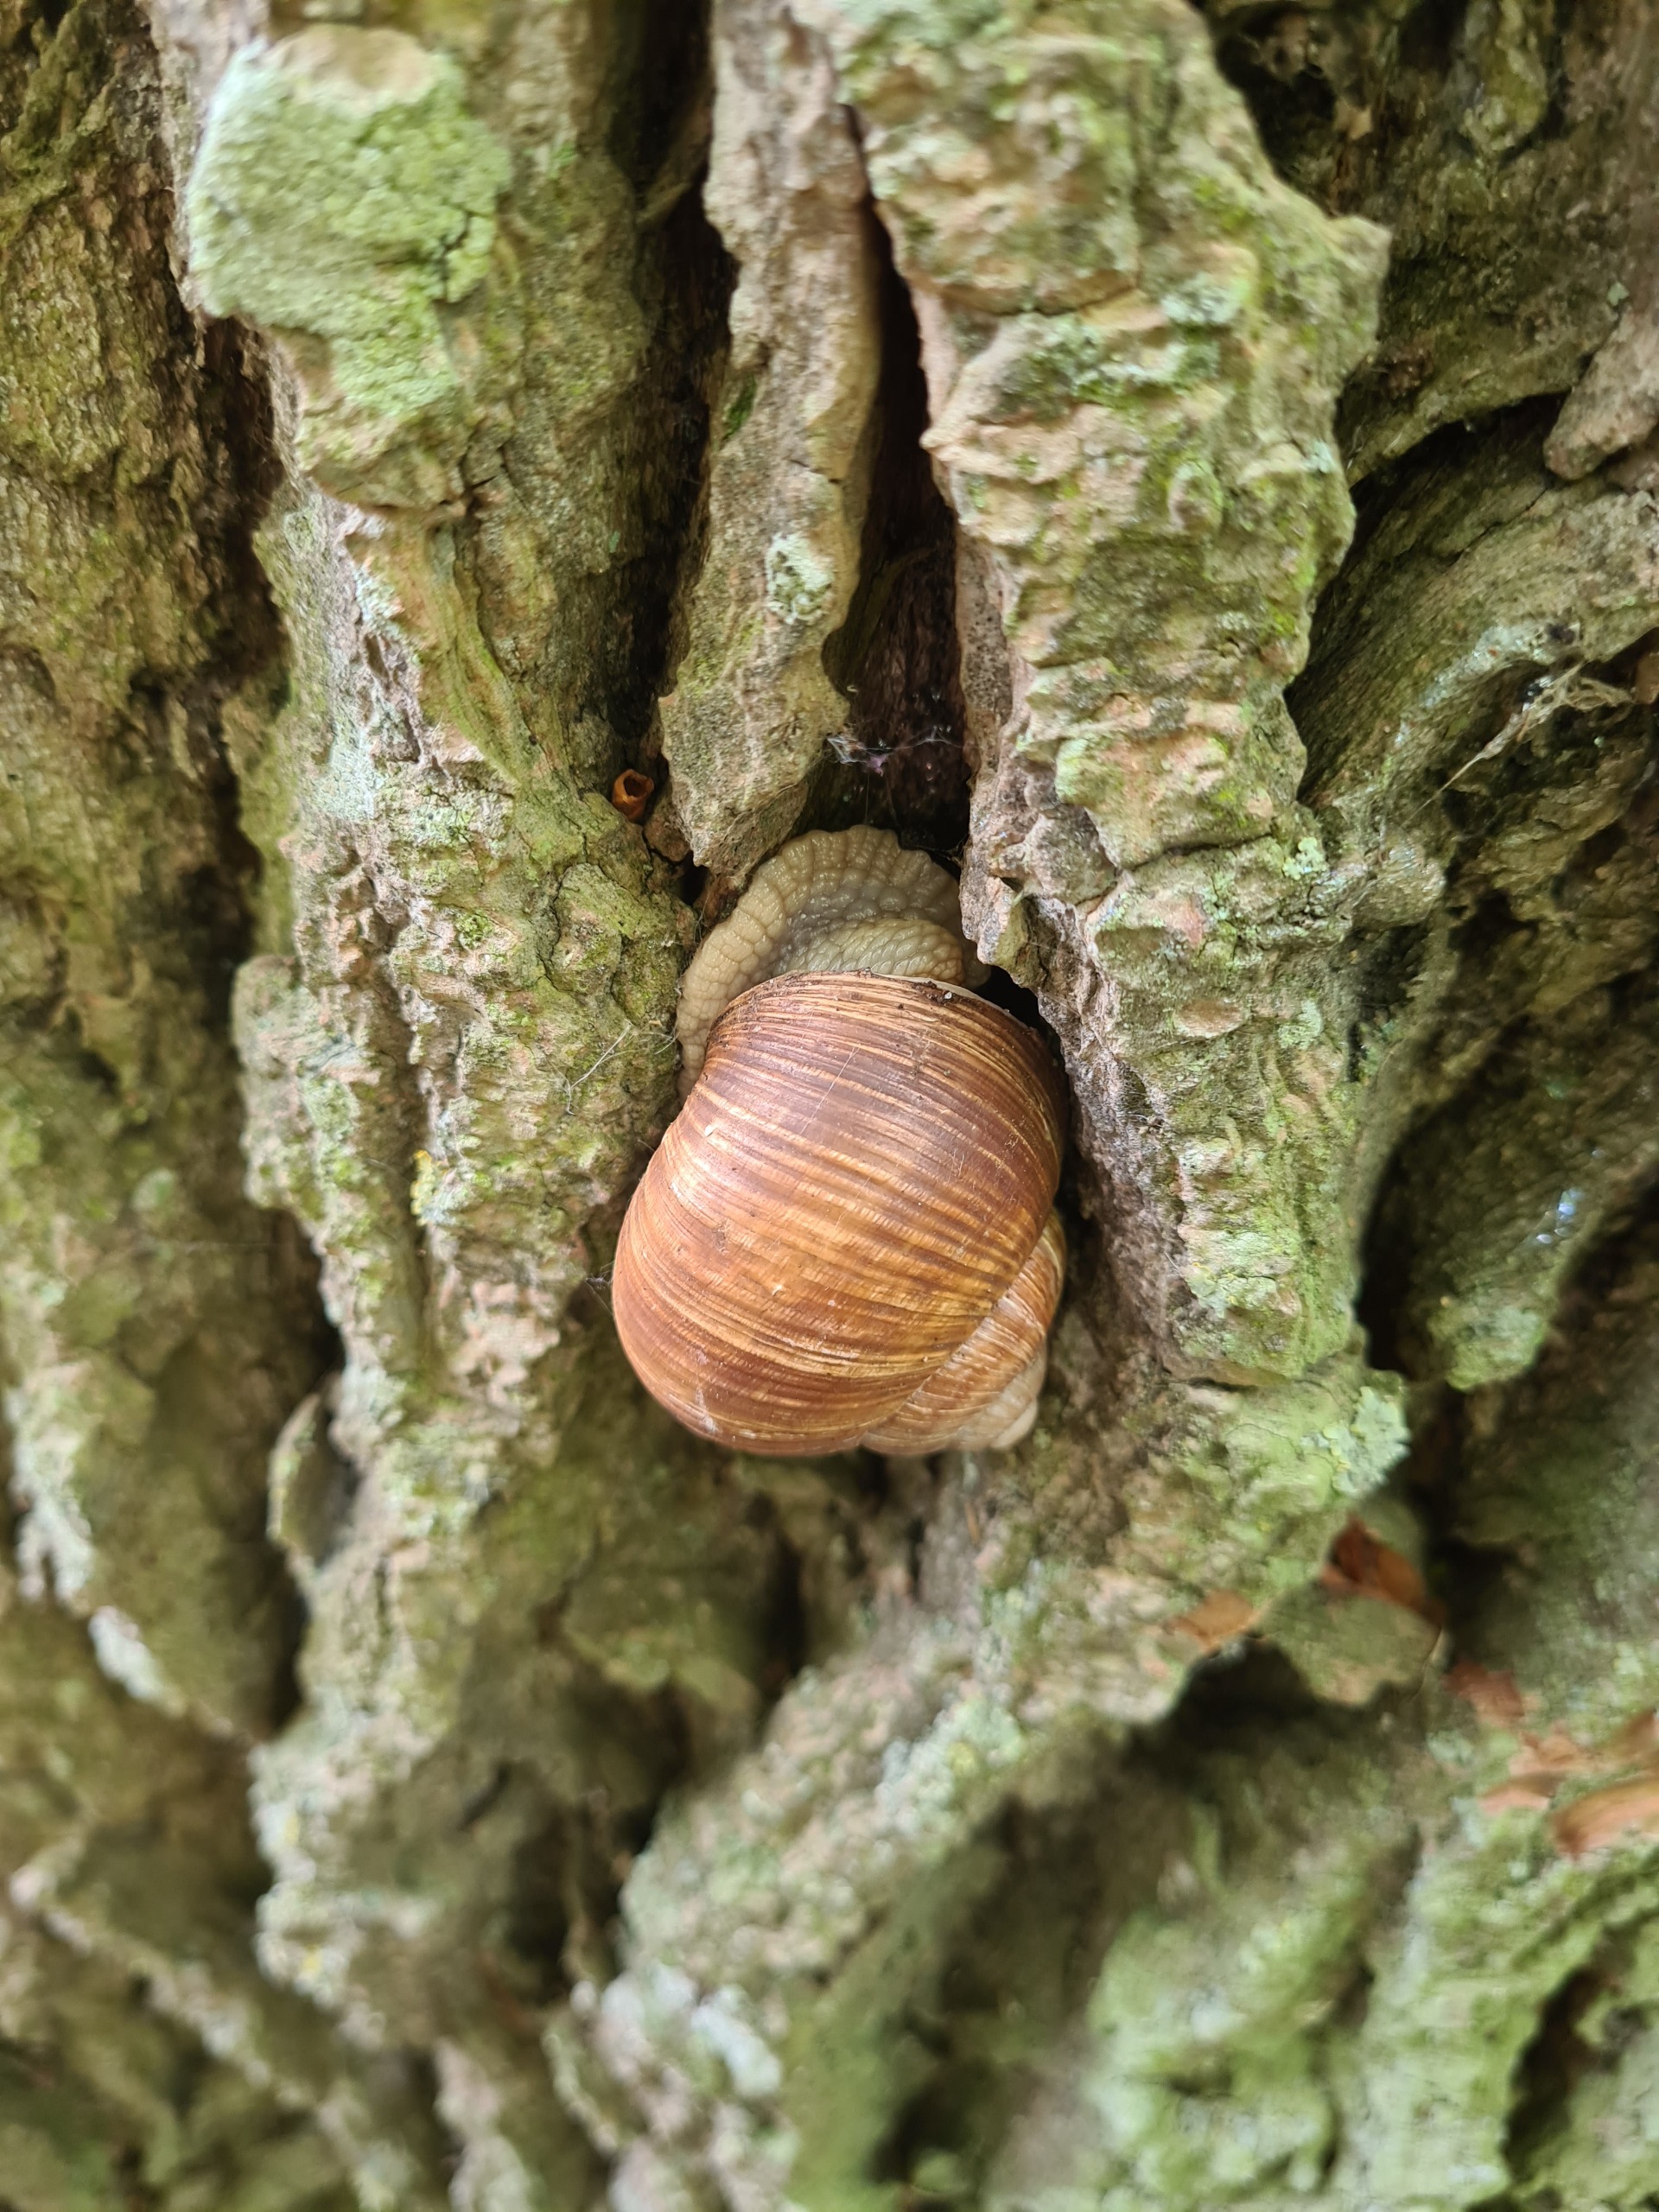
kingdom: Animalia
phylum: Mollusca
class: Gastropoda
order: Stylommatophora
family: Helicidae
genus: Helix
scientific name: Helix pomatia
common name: Vinbjergsnegl
